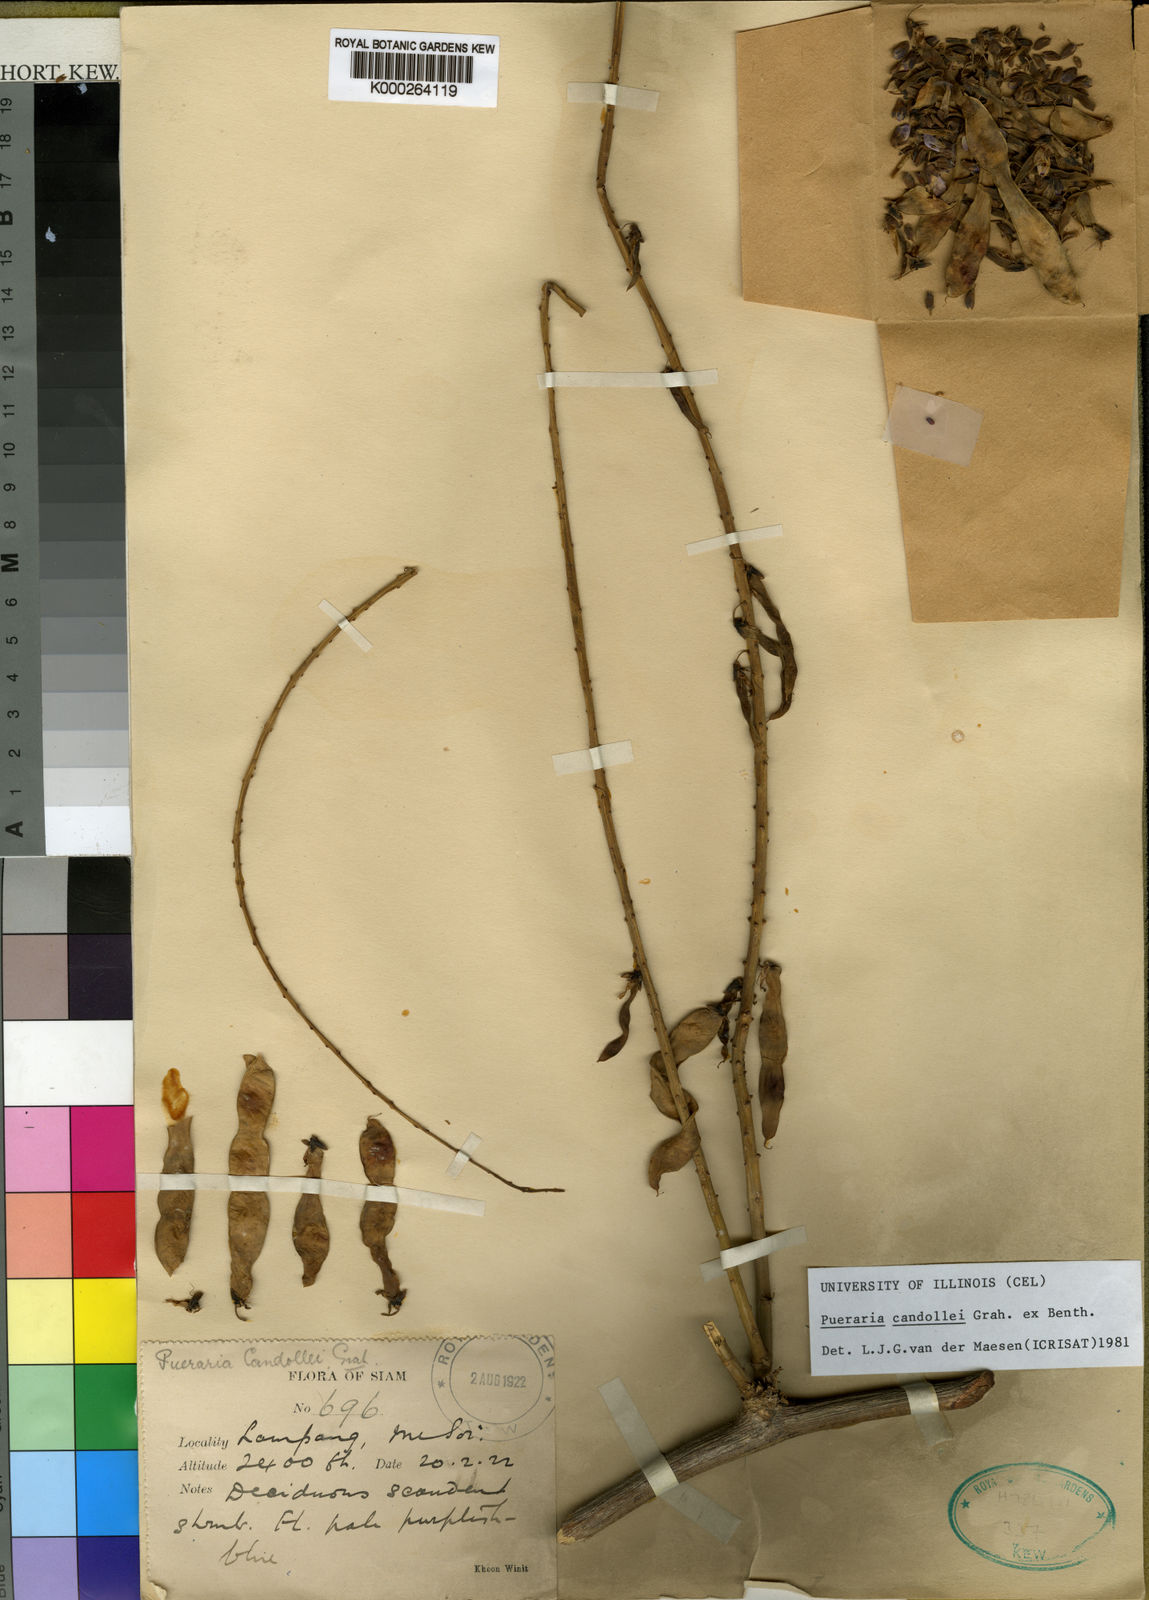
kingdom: Plantae
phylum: Tracheophyta
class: Magnoliopsida
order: Fabales
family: Fabaceae
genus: Pueraria
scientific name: Pueraria candollei
